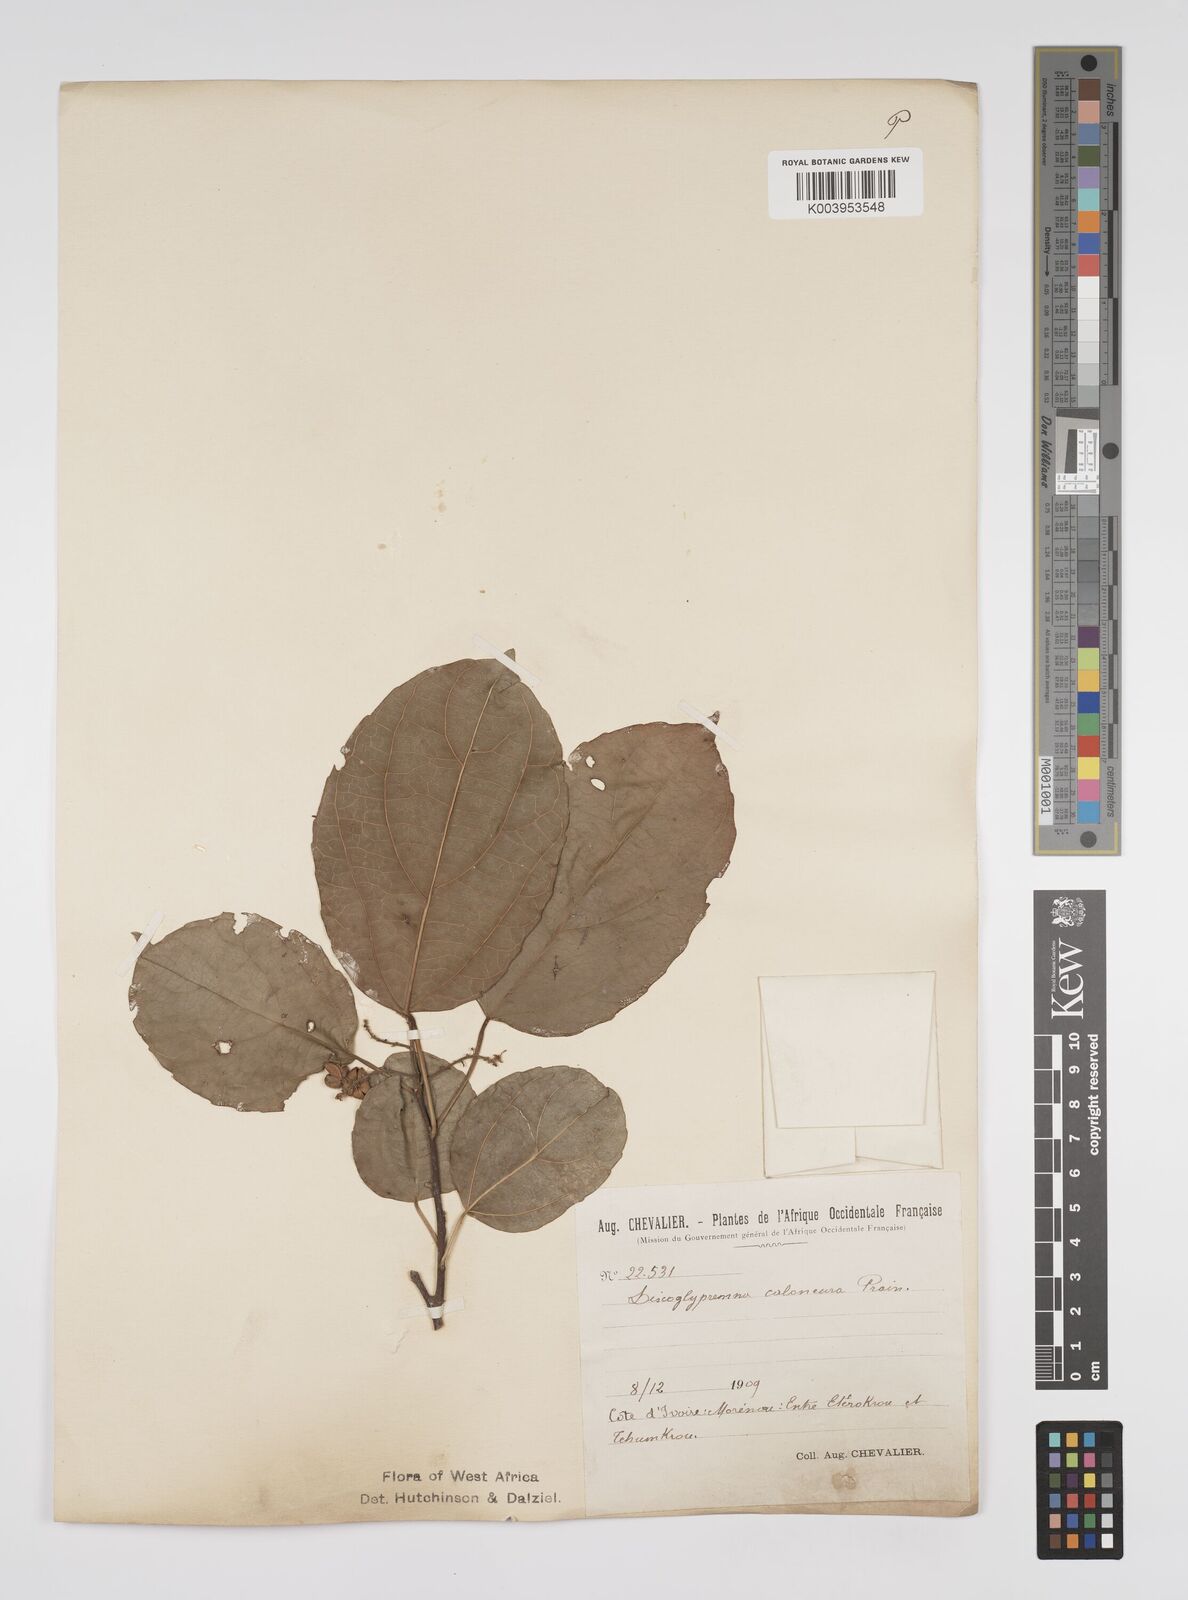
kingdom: Plantae
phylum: Tracheophyta
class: Magnoliopsida
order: Malpighiales
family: Euphorbiaceae
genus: Discoglypremna
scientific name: Discoglypremna caloneura
